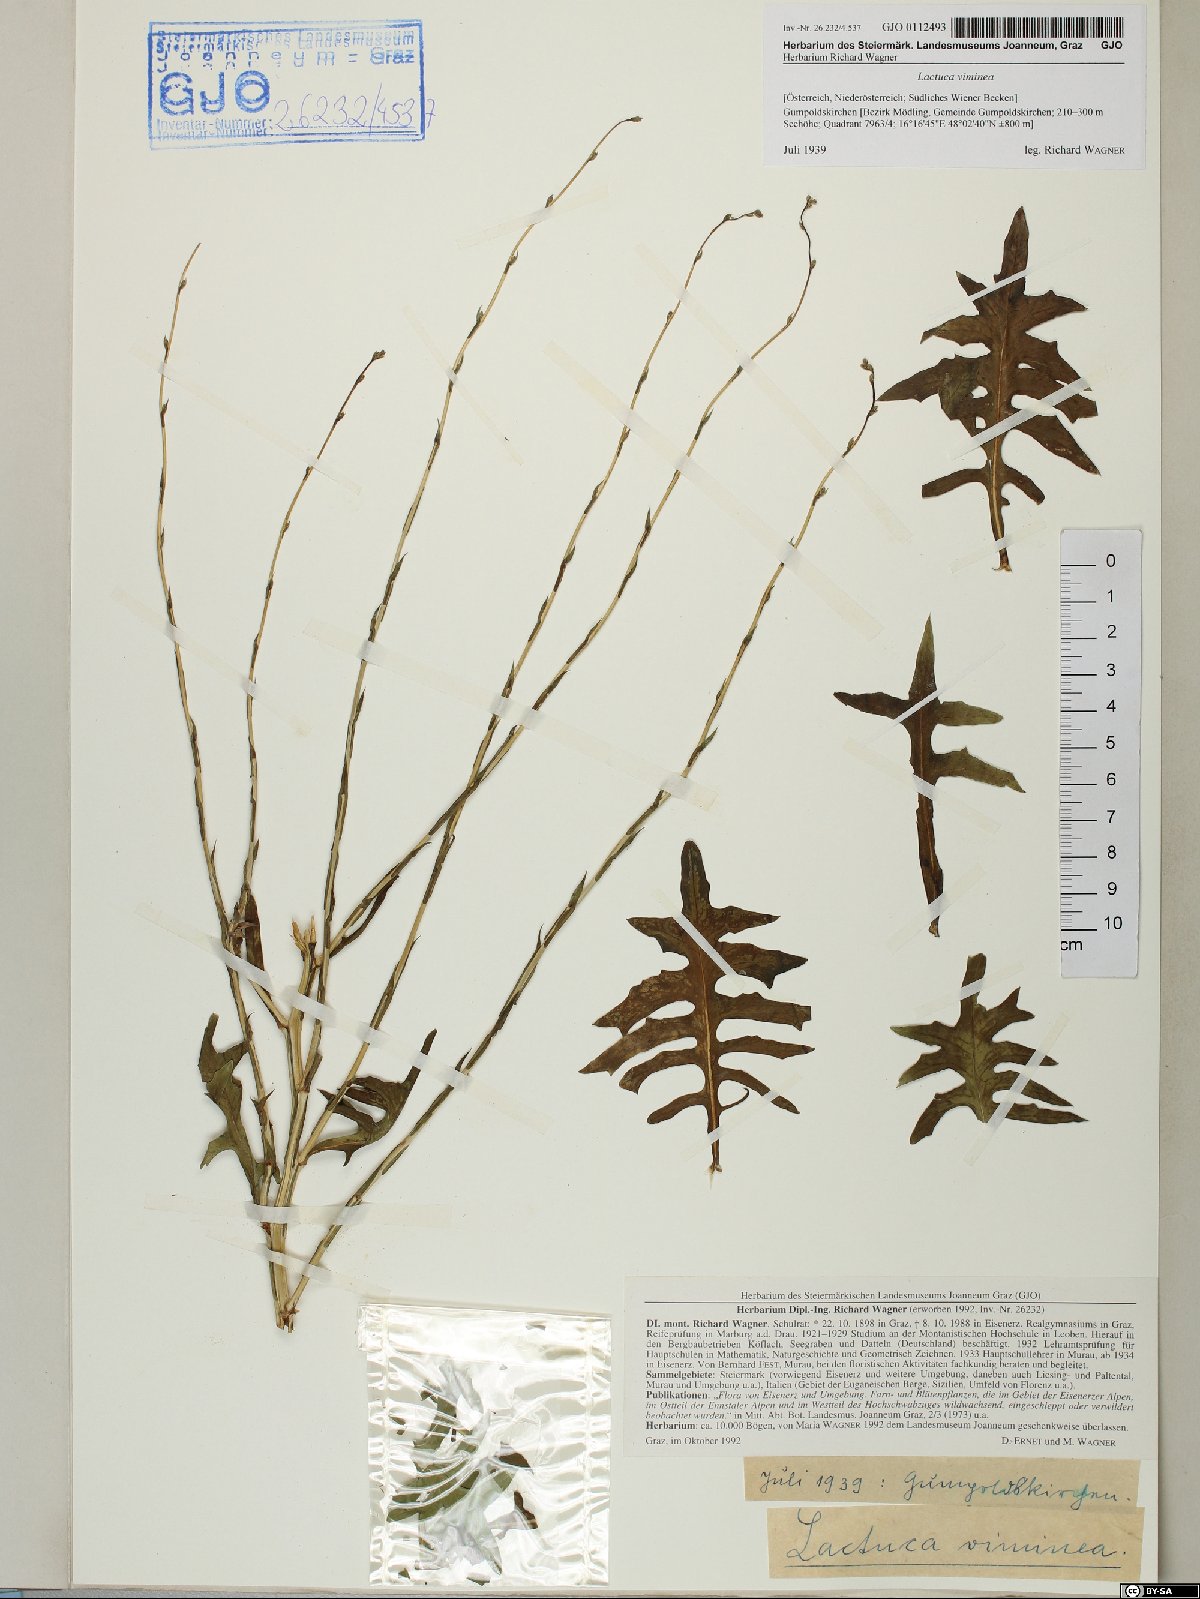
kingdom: Plantae
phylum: Tracheophyta
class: Magnoliopsida
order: Asterales
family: Asteraceae
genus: Lactuca
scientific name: Lactuca viminea
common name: Pliant lettuce
